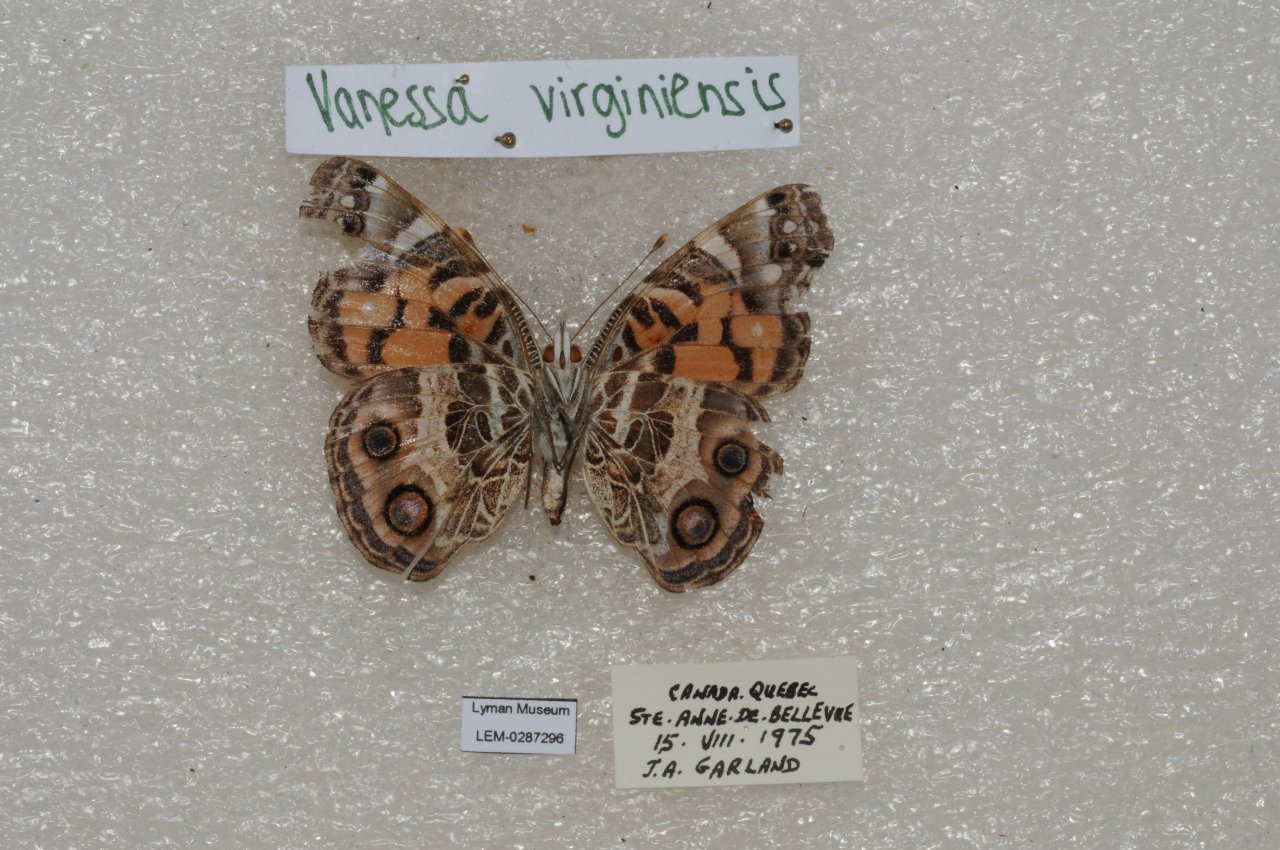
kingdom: Animalia
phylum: Arthropoda
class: Insecta
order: Lepidoptera
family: Nymphalidae
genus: Vanessa
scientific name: Vanessa virginiensis
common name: American Lady
